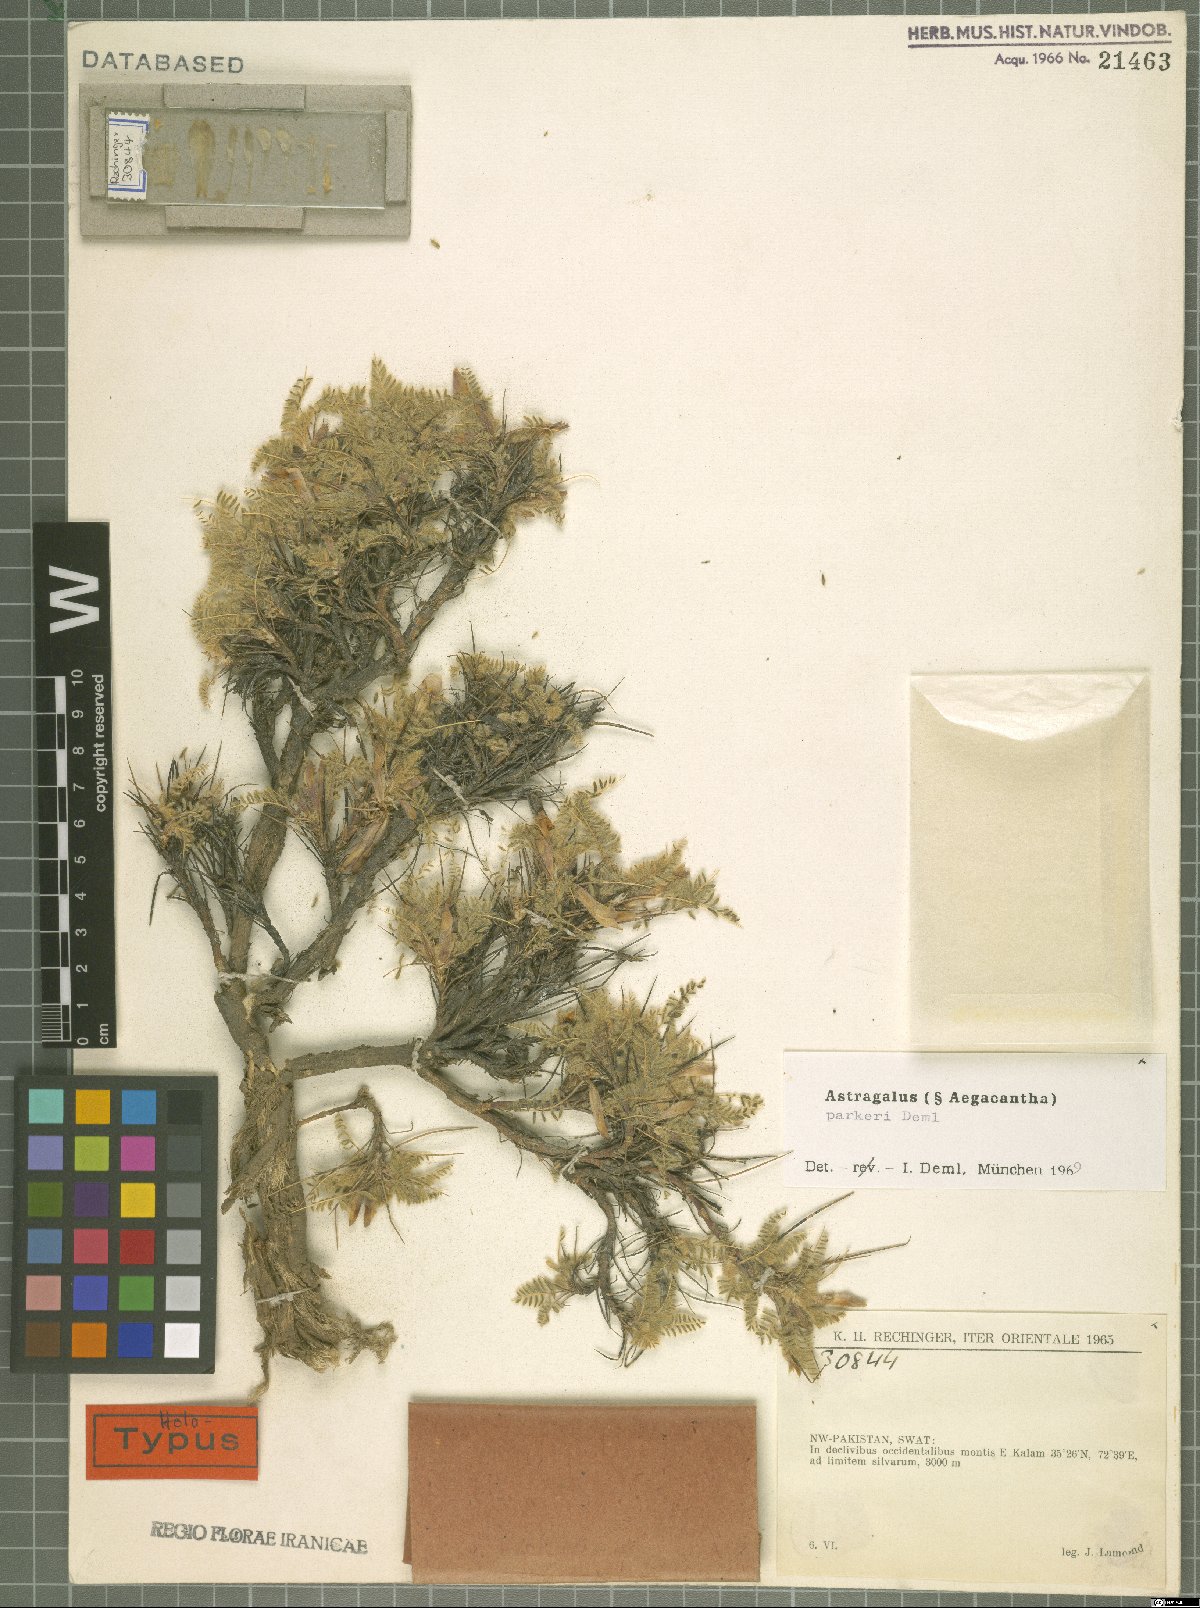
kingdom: Plantae
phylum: Tracheophyta
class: Magnoliopsida
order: Fabales
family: Fabaceae
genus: Astragalus
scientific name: Astragalus parkeri
